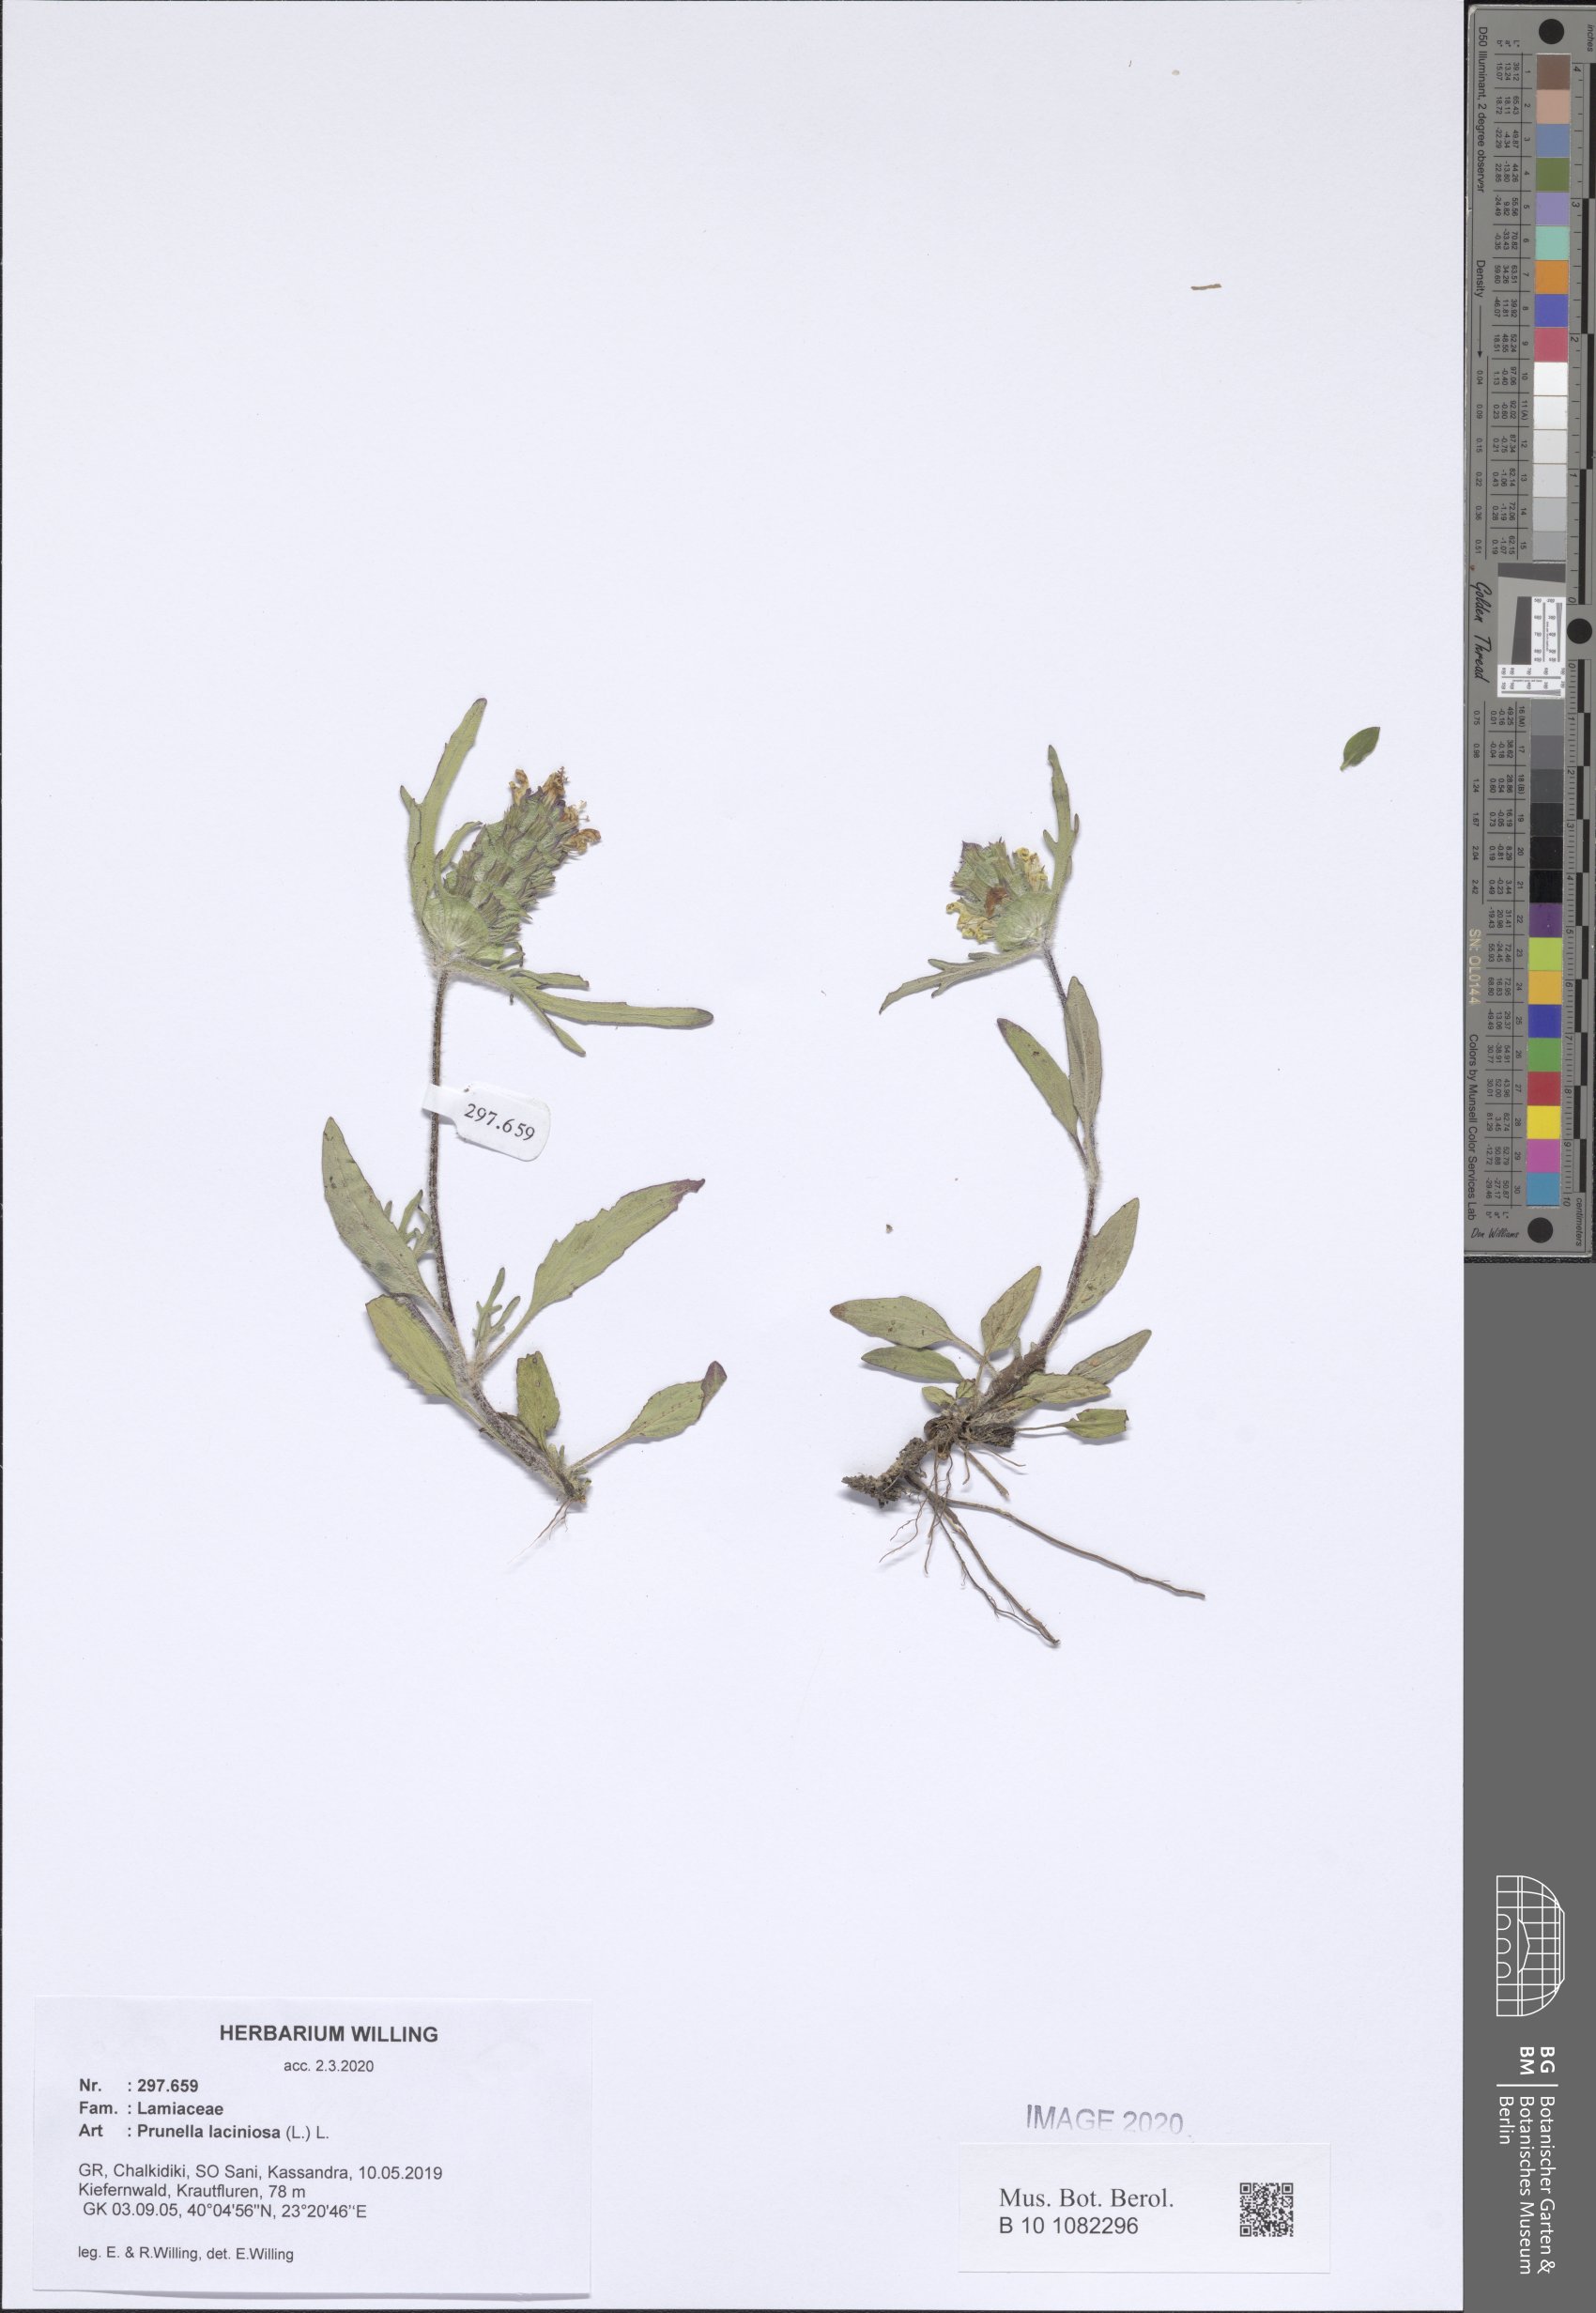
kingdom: Plantae
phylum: Tracheophyta
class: Magnoliopsida
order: Lamiales
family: Lamiaceae
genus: Prunella
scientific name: Prunella laciniata
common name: Cut-leaved selfheal
